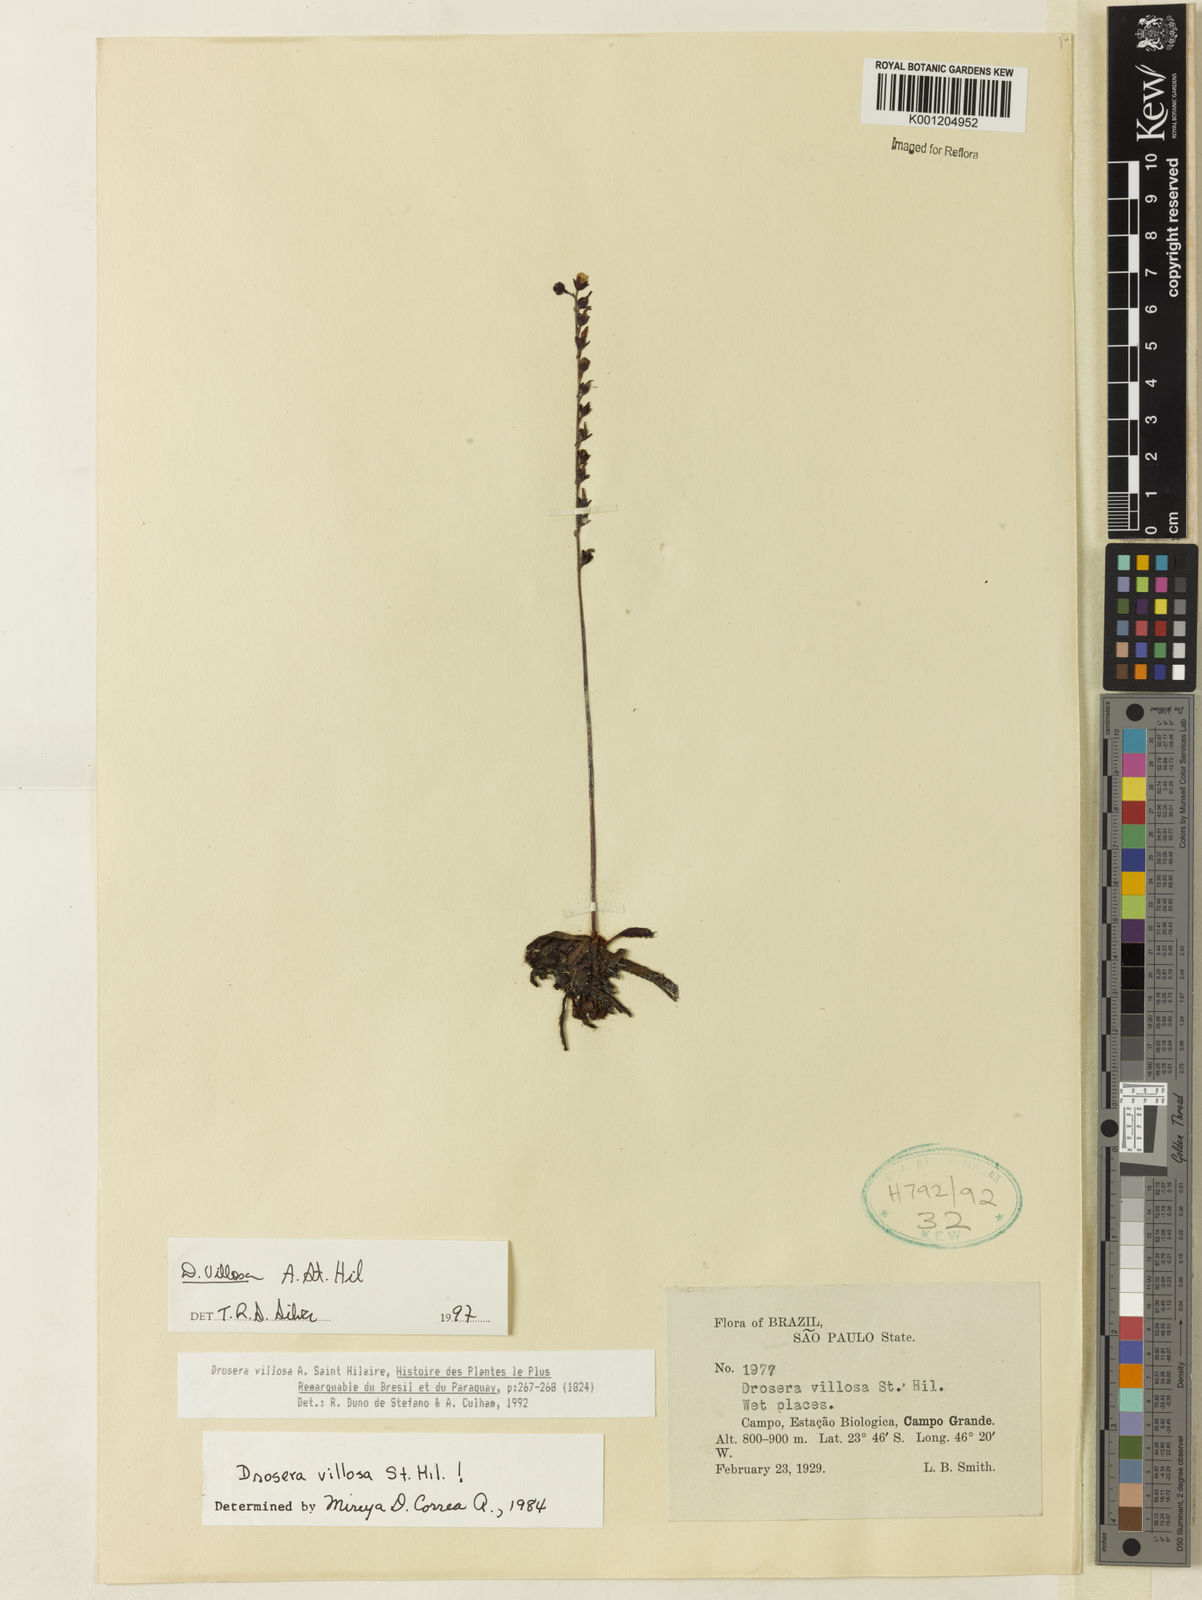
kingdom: Plantae
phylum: Tracheophyta
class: Magnoliopsida
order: Caryophyllales
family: Droseraceae
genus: Drosera
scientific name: Drosera villosa
